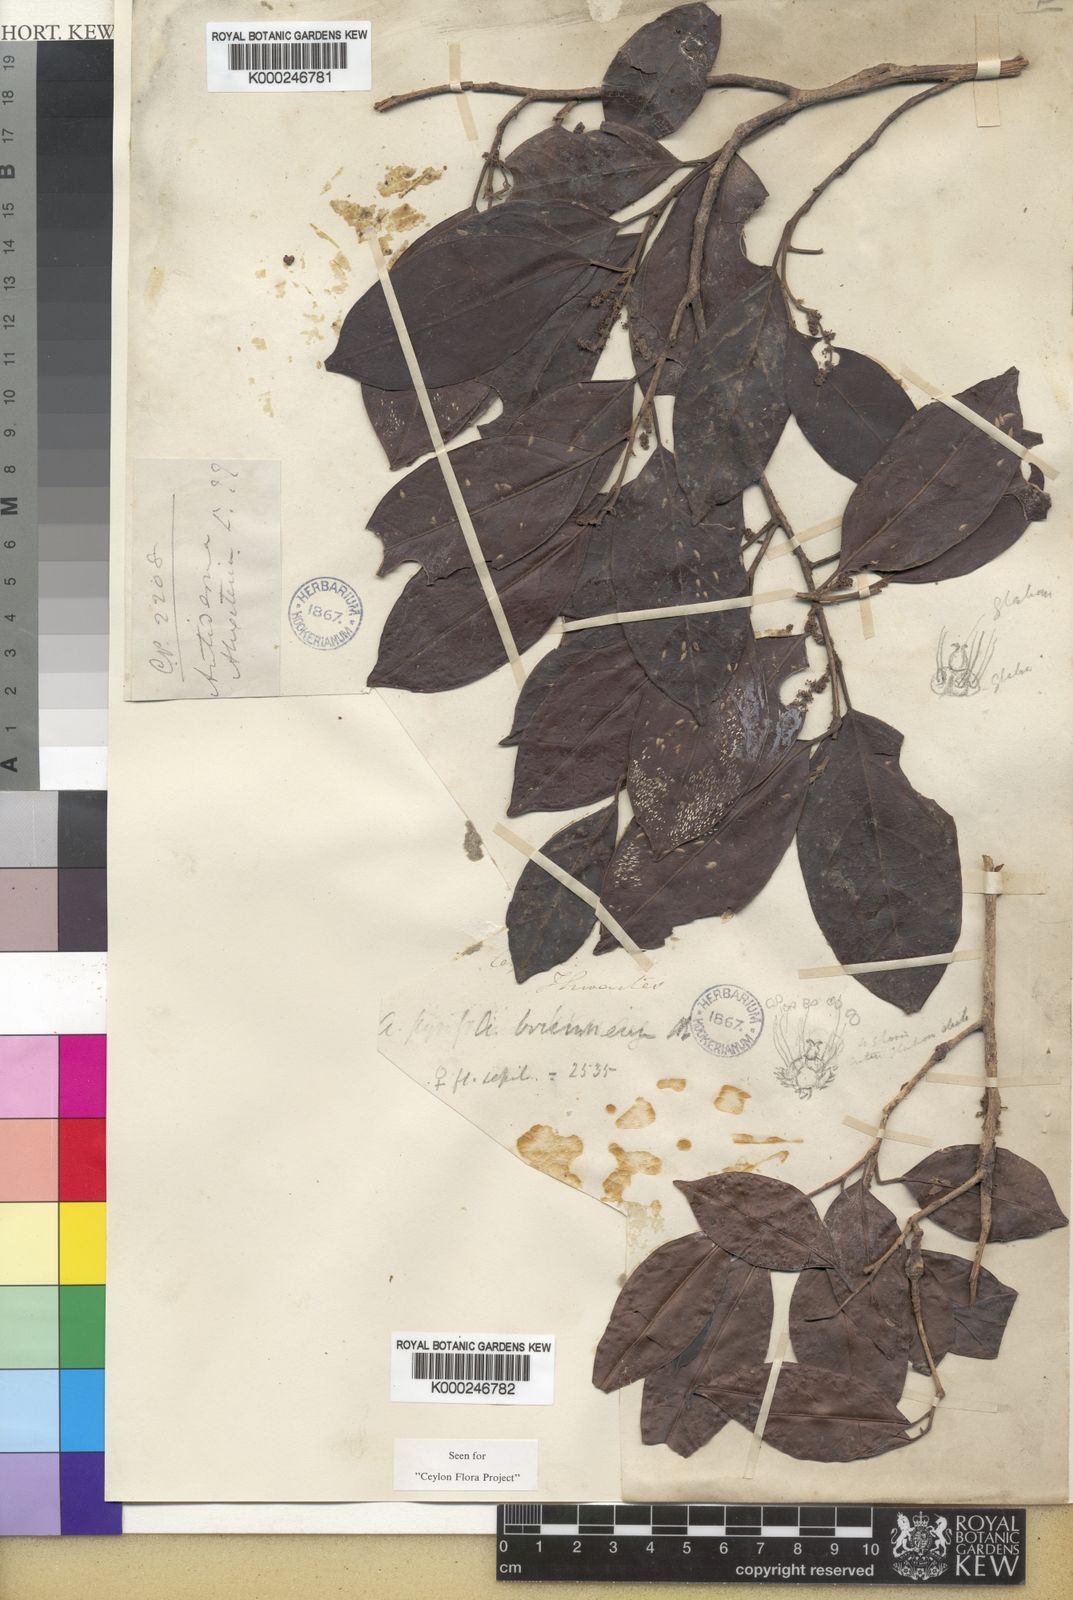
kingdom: Plantae
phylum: Tracheophyta
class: Magnoliopsida
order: Malpighiales
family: Phyllanthaceae
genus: Antidesma
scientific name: Antidesma
